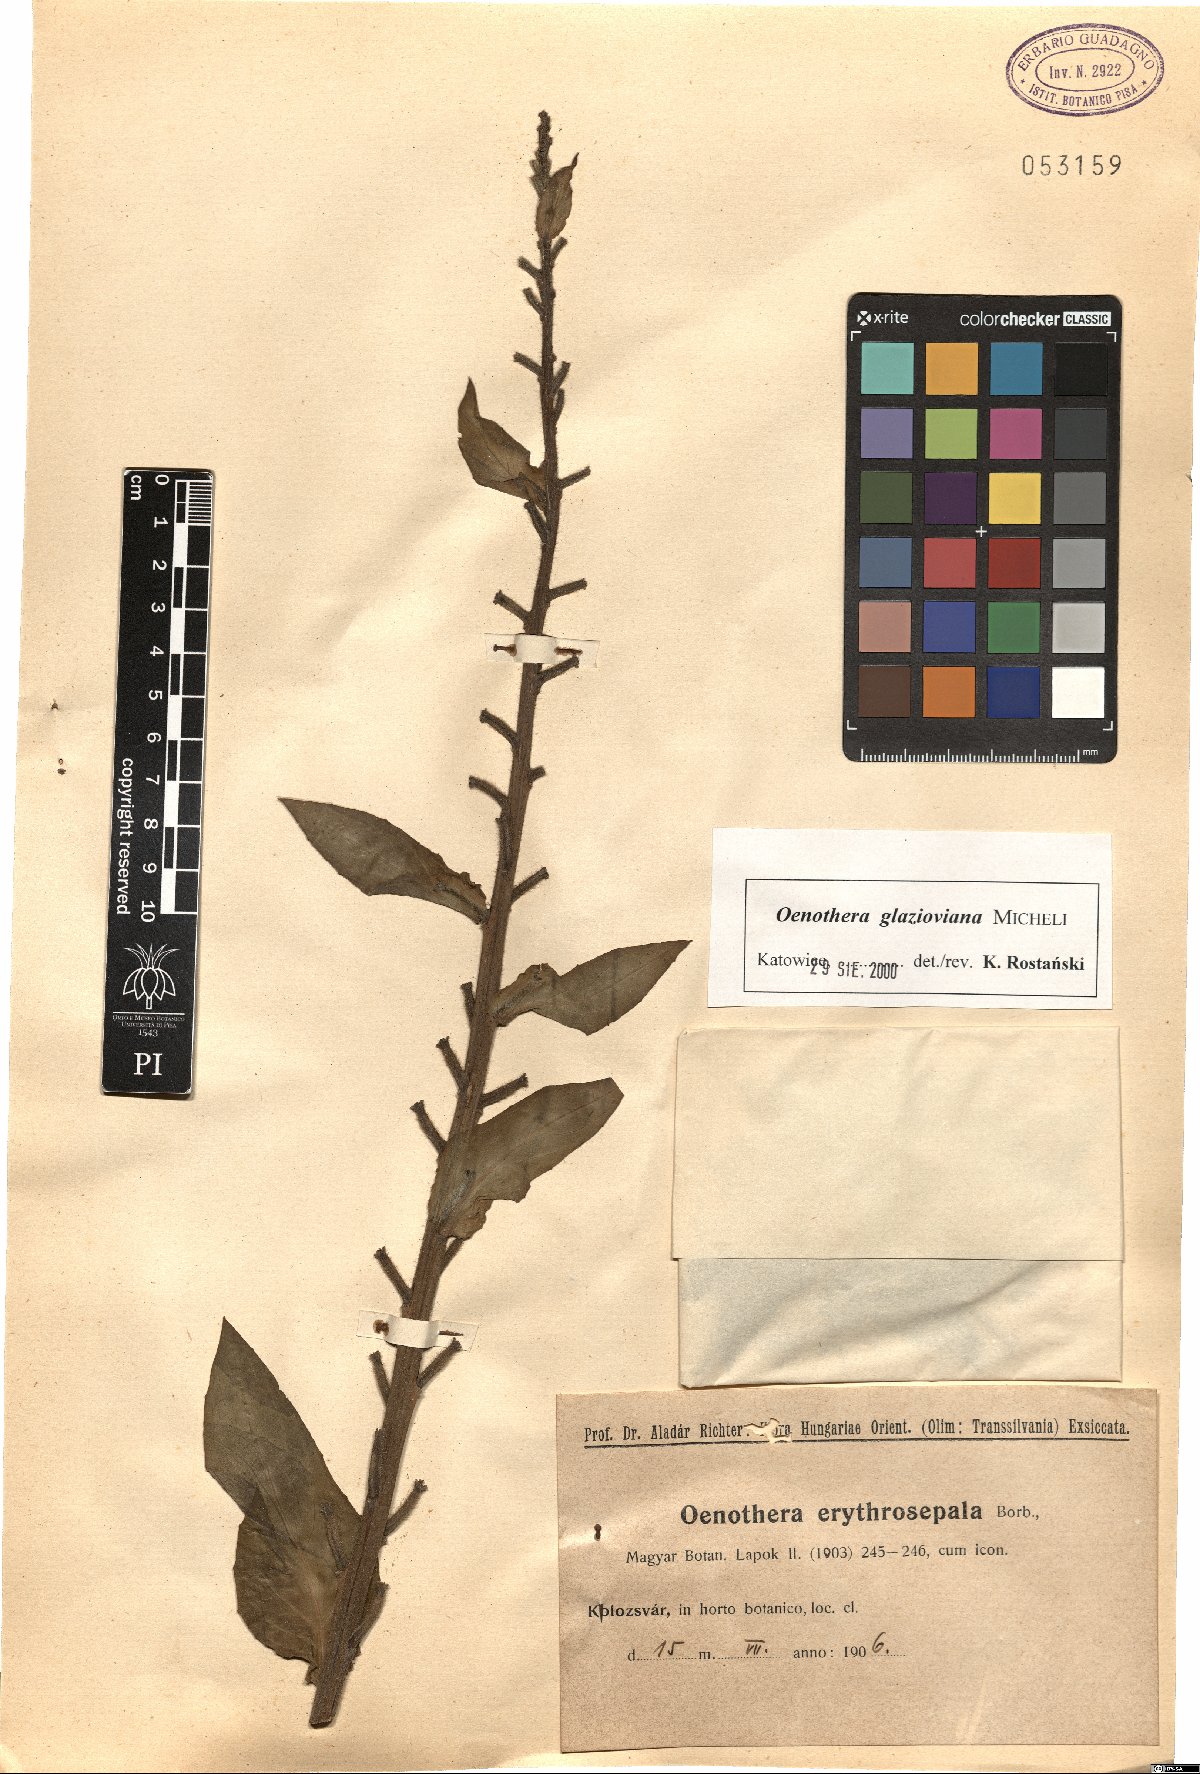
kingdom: Plantae
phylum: Tracheophyta
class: Magnoliopsida
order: Myrtales
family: Onagraceae
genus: Oenothera
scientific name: Oenothera glazioviana
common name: Large-flowered evening-primrose
